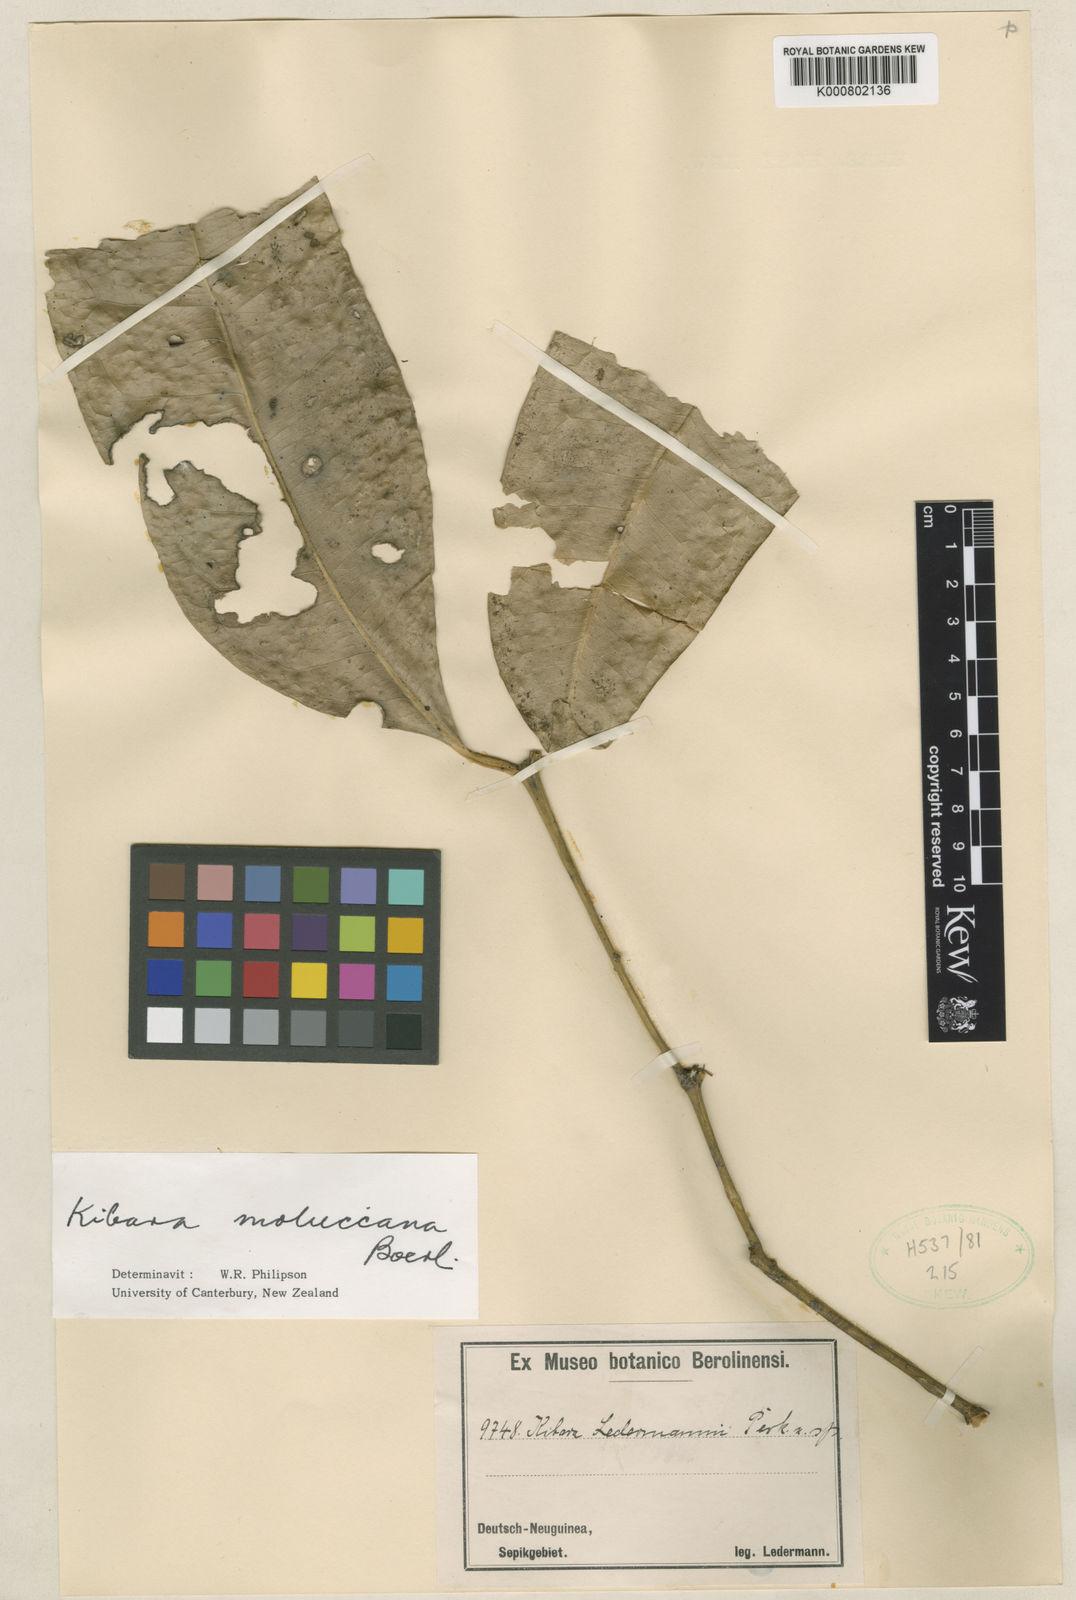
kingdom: Plantae
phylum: Tracheophyta
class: Magnoliopsida
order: Laurales
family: Monimiaceae
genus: Kibara
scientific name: Kibara moluccana
